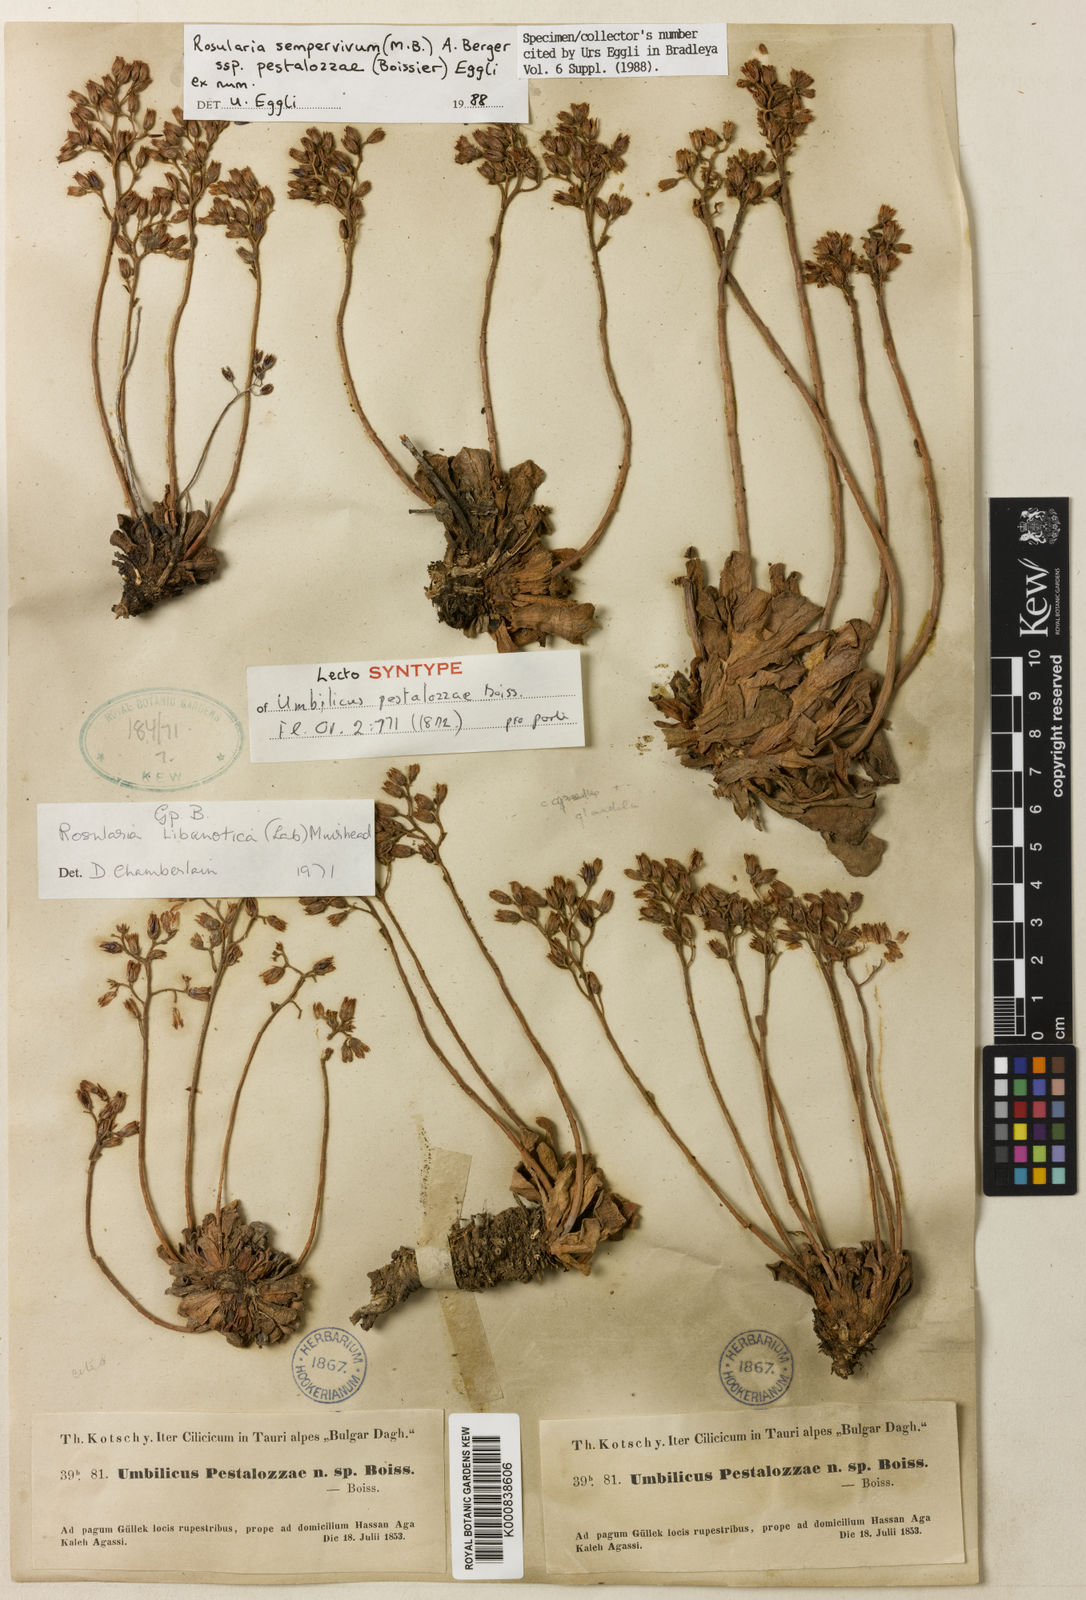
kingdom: Plantae
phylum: Tracheophyta
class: Magnoliopsida
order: Saxifragales
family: Crassulaceae
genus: Rosularia
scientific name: Rosularia sempervivum
